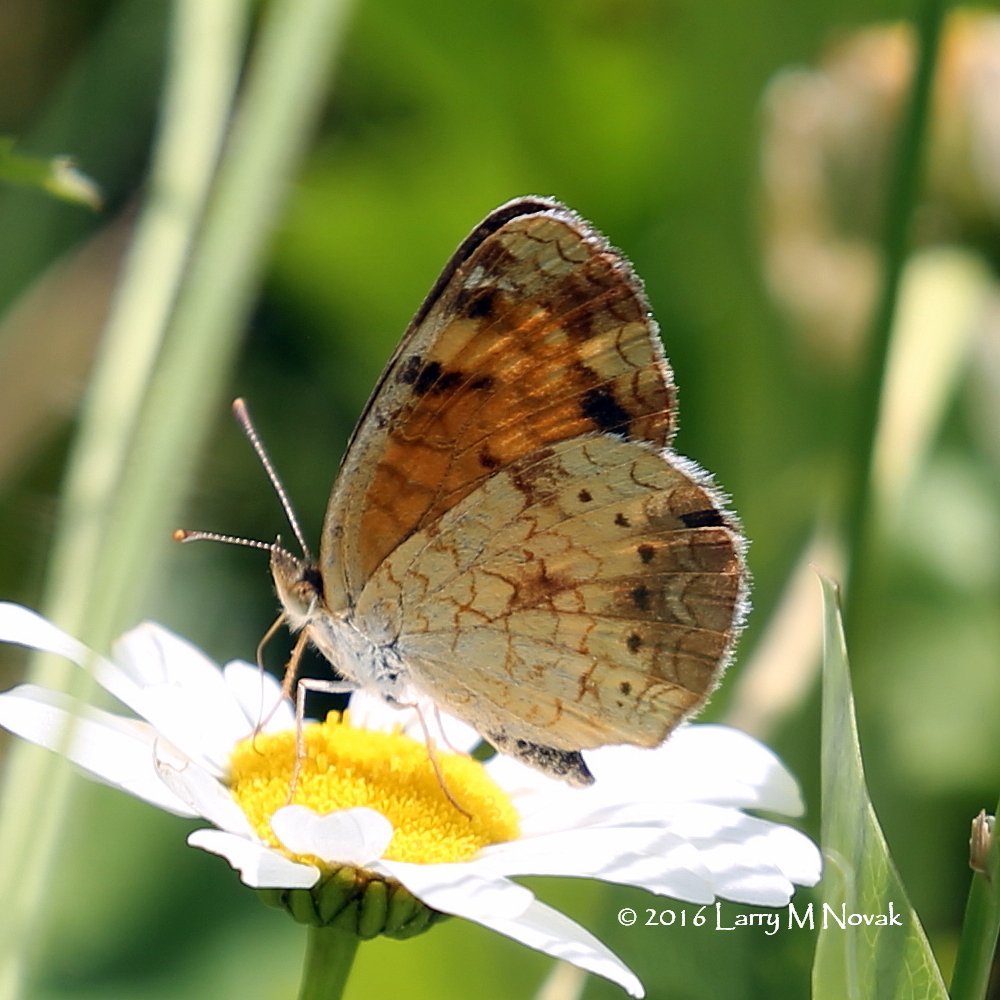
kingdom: Animalia
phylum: Arthropoda
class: Insecta
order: Lepidoptera
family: Nymphalidae
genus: Phyciodes
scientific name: Phyciodes tharos
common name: Northern Crescent
